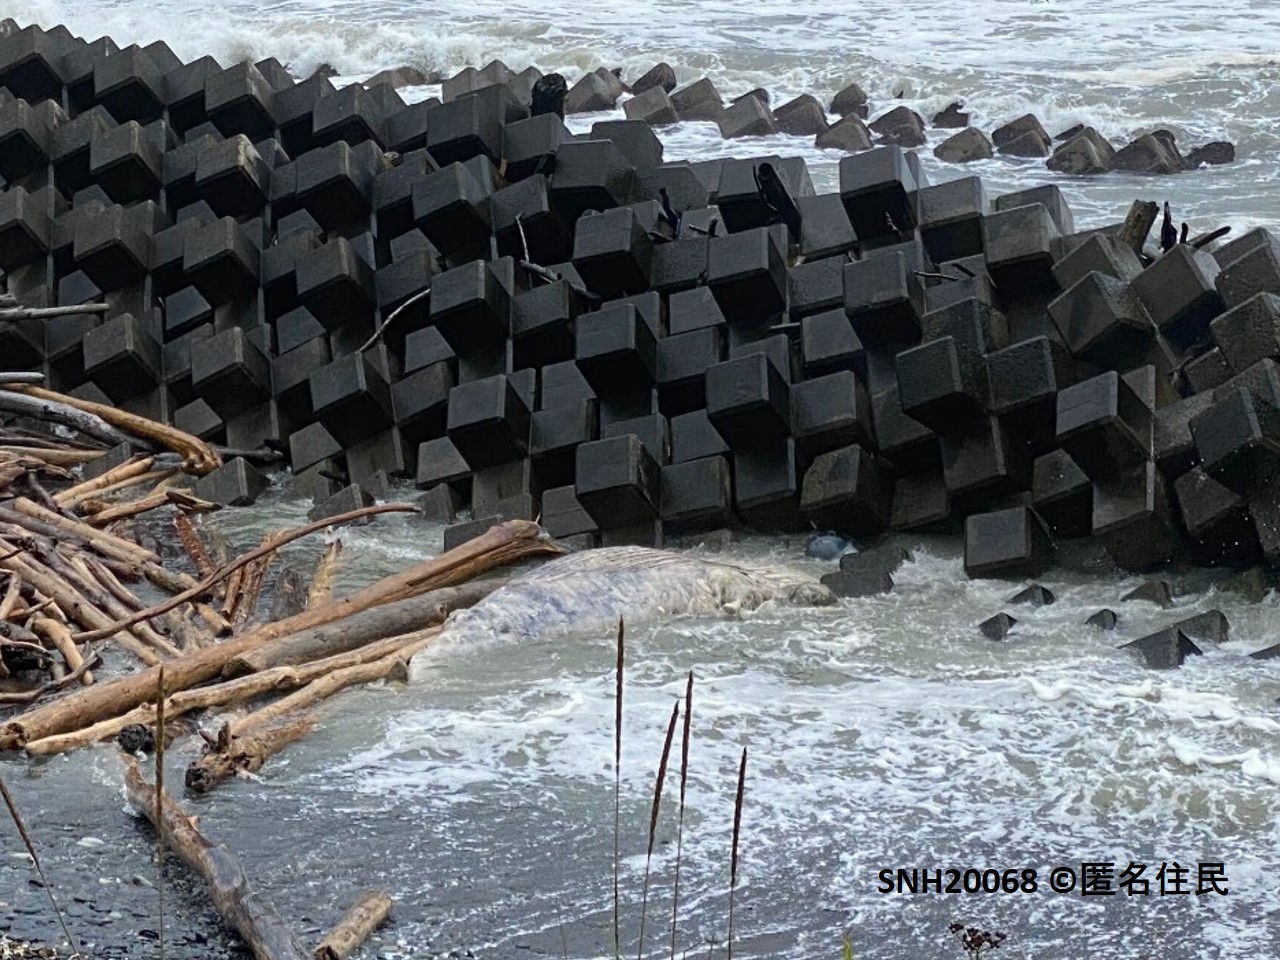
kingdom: Animalia
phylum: Chordata
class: Mammalia
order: Cetacea
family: Balaenopteridae
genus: Balaenoptera
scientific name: Balaenoptera
